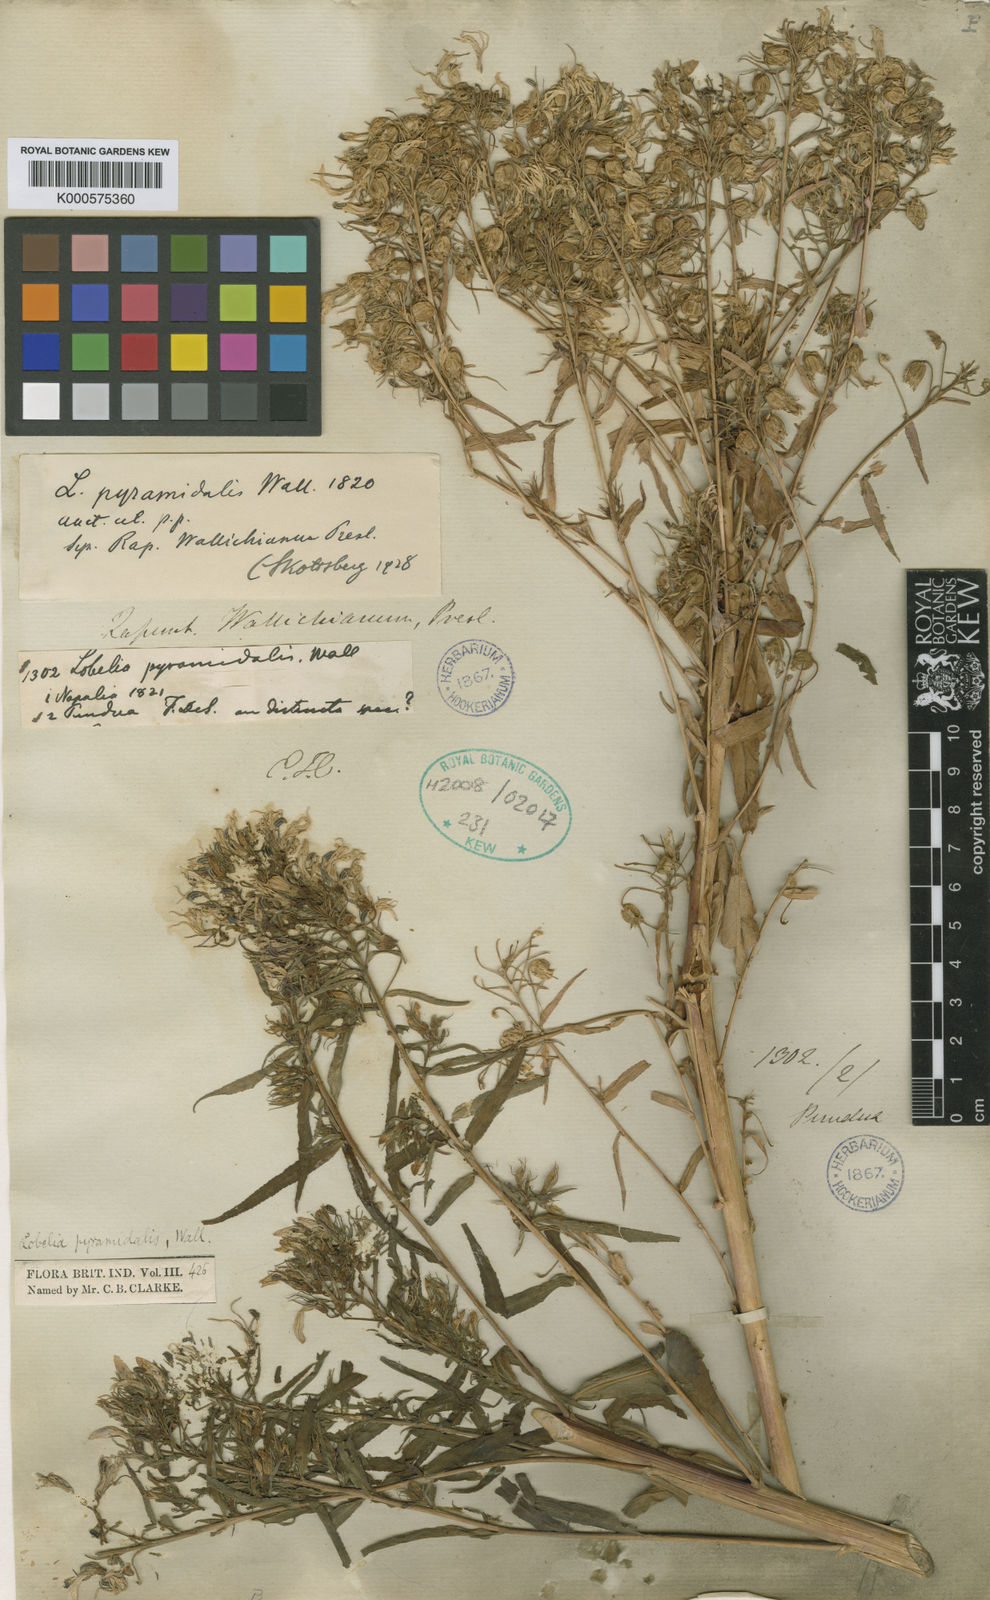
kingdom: Plantae
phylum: Tracheophyta
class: Magnoliopsida
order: Asterales
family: Campanulaceae
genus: Lobelia
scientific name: Lobelia
